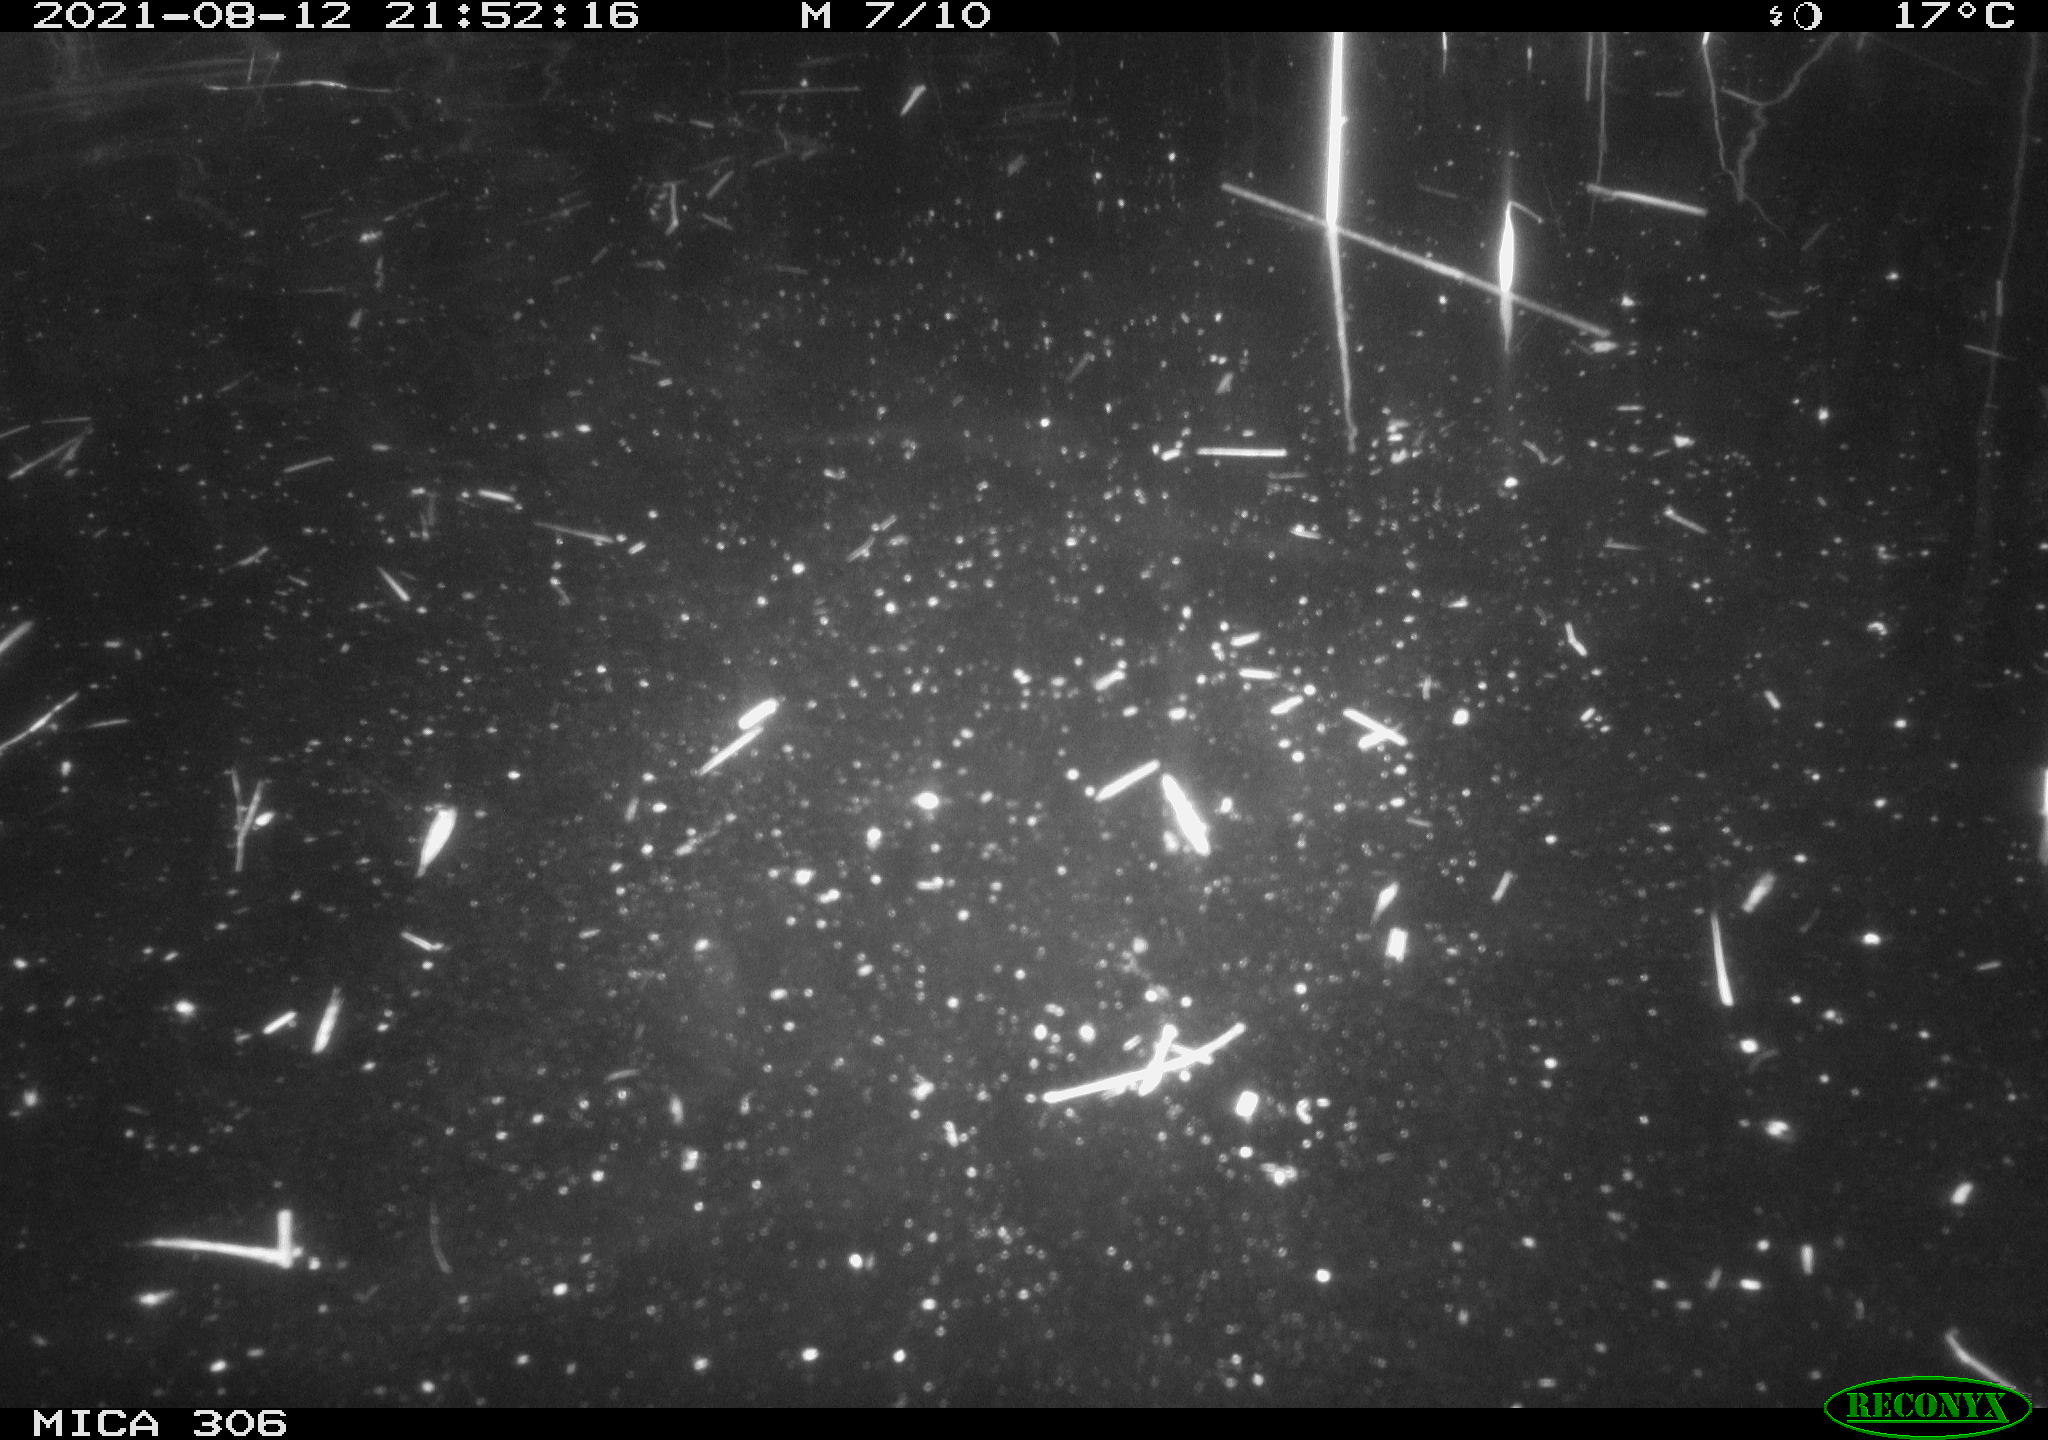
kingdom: Animalia
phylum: Chordata
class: Aves
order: Anseriformes
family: Anatidae
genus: Anas
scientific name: Anas platyrhynchos
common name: Mallard
